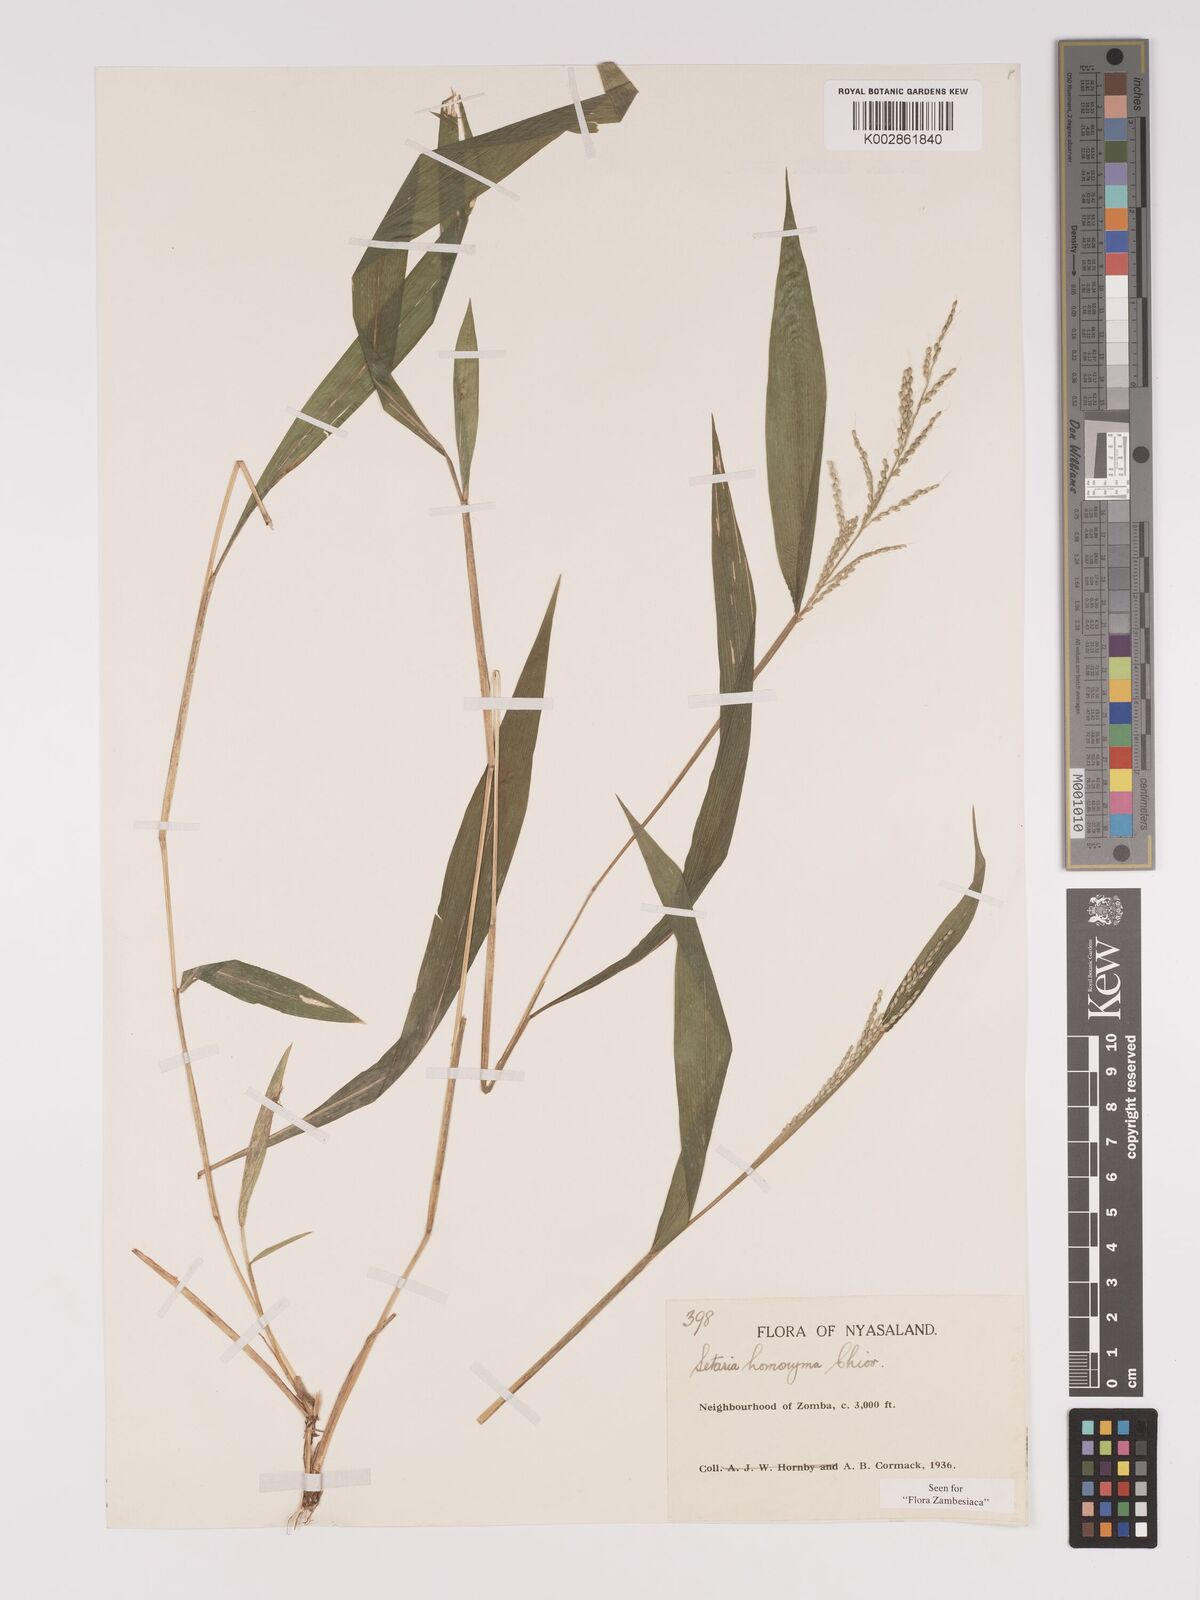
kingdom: Plantae
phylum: Tracheophyta
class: Liliopsida
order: Poales
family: Poaceae
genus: Setaria
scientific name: Setaria homonyma
